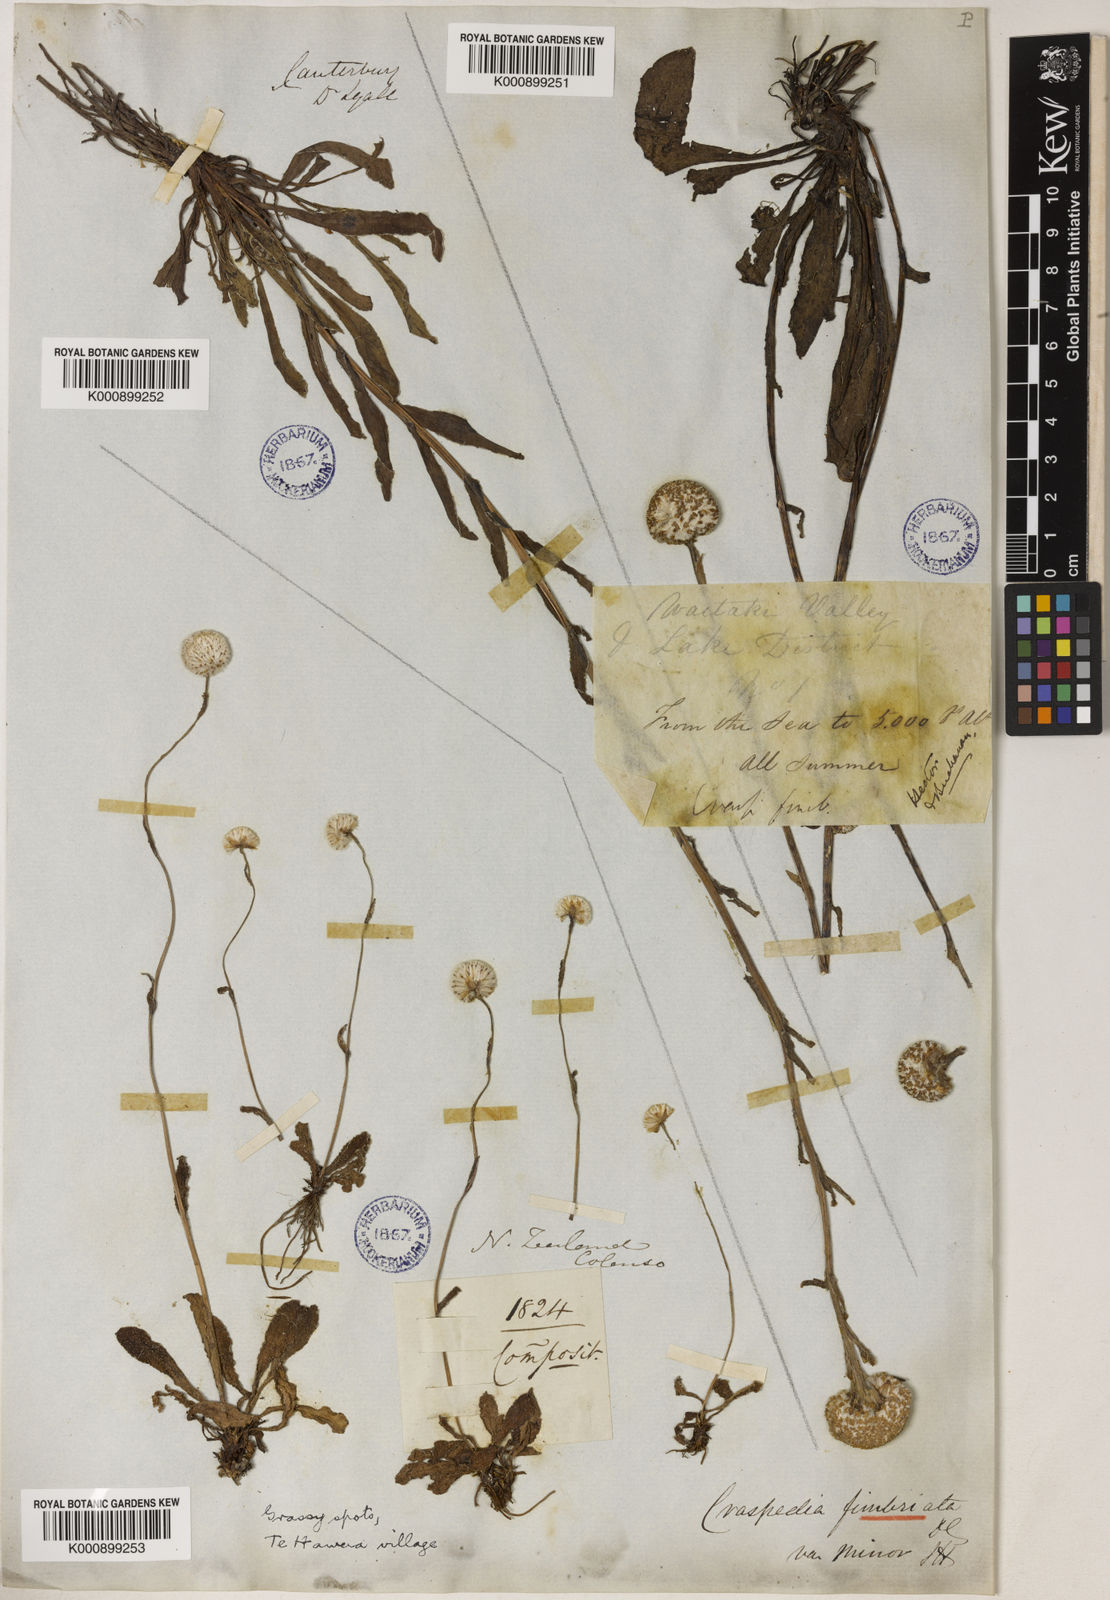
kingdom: Plantae
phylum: Tracheophyta
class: Magnoliopsida
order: Asterales
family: Asteraceae
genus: Craspedia
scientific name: Craspedia uniflora
